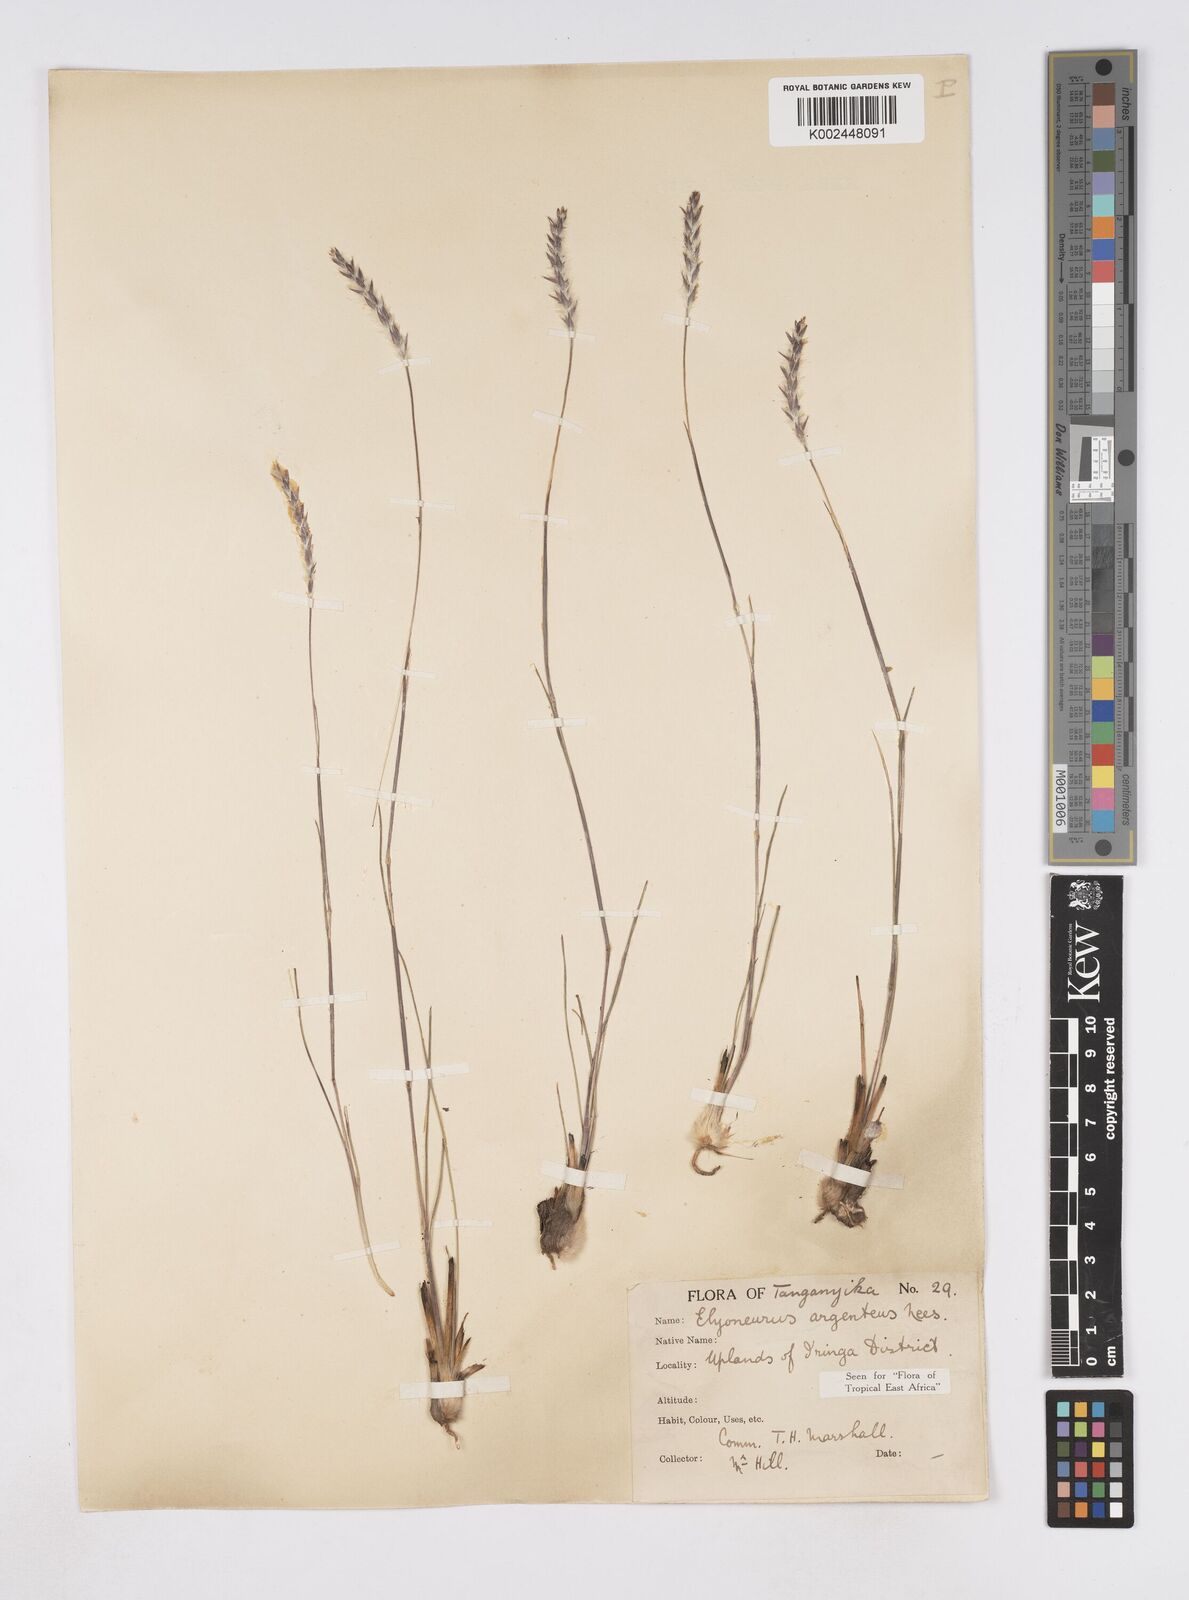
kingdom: Plantae
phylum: Tracheophyta
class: Liliopsida
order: Poales
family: Poaceae
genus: Elionurus
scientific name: Elionurus muticus
